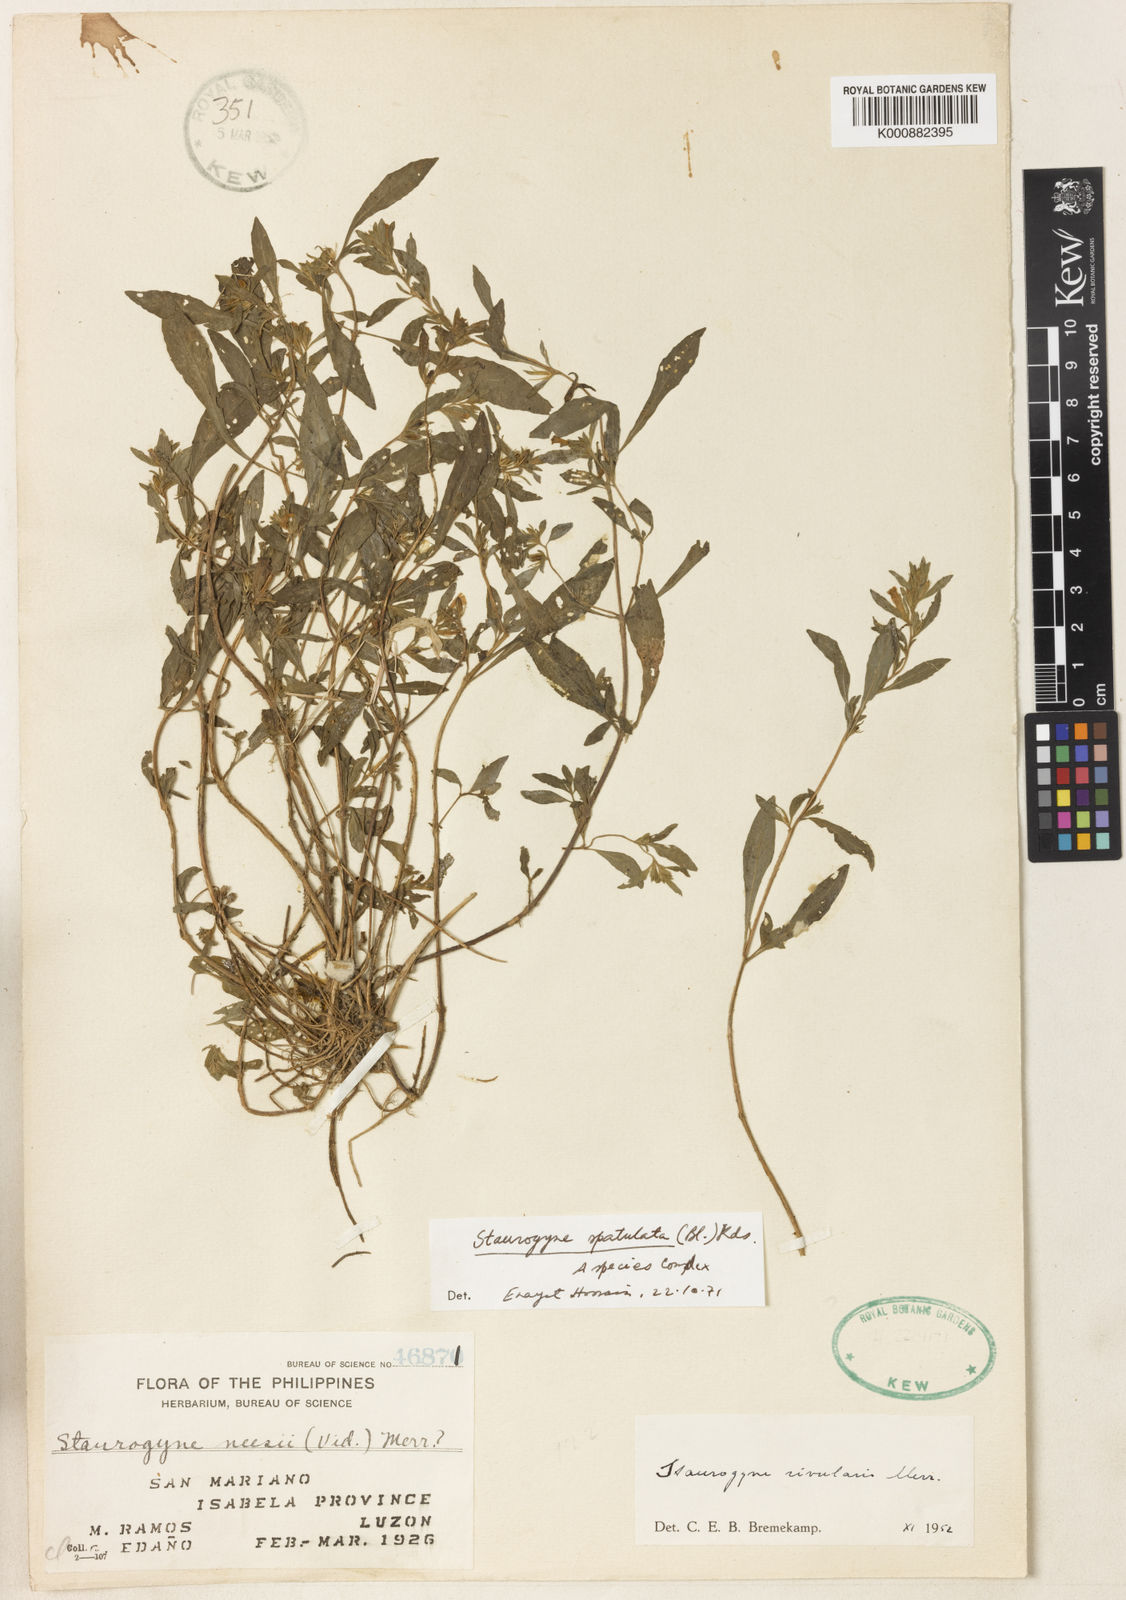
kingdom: Plantae
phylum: Tracheophyta
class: Magnoliopsida
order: Lamiales
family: Acanthaceae
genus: Staurogyne
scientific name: Staurogyne
